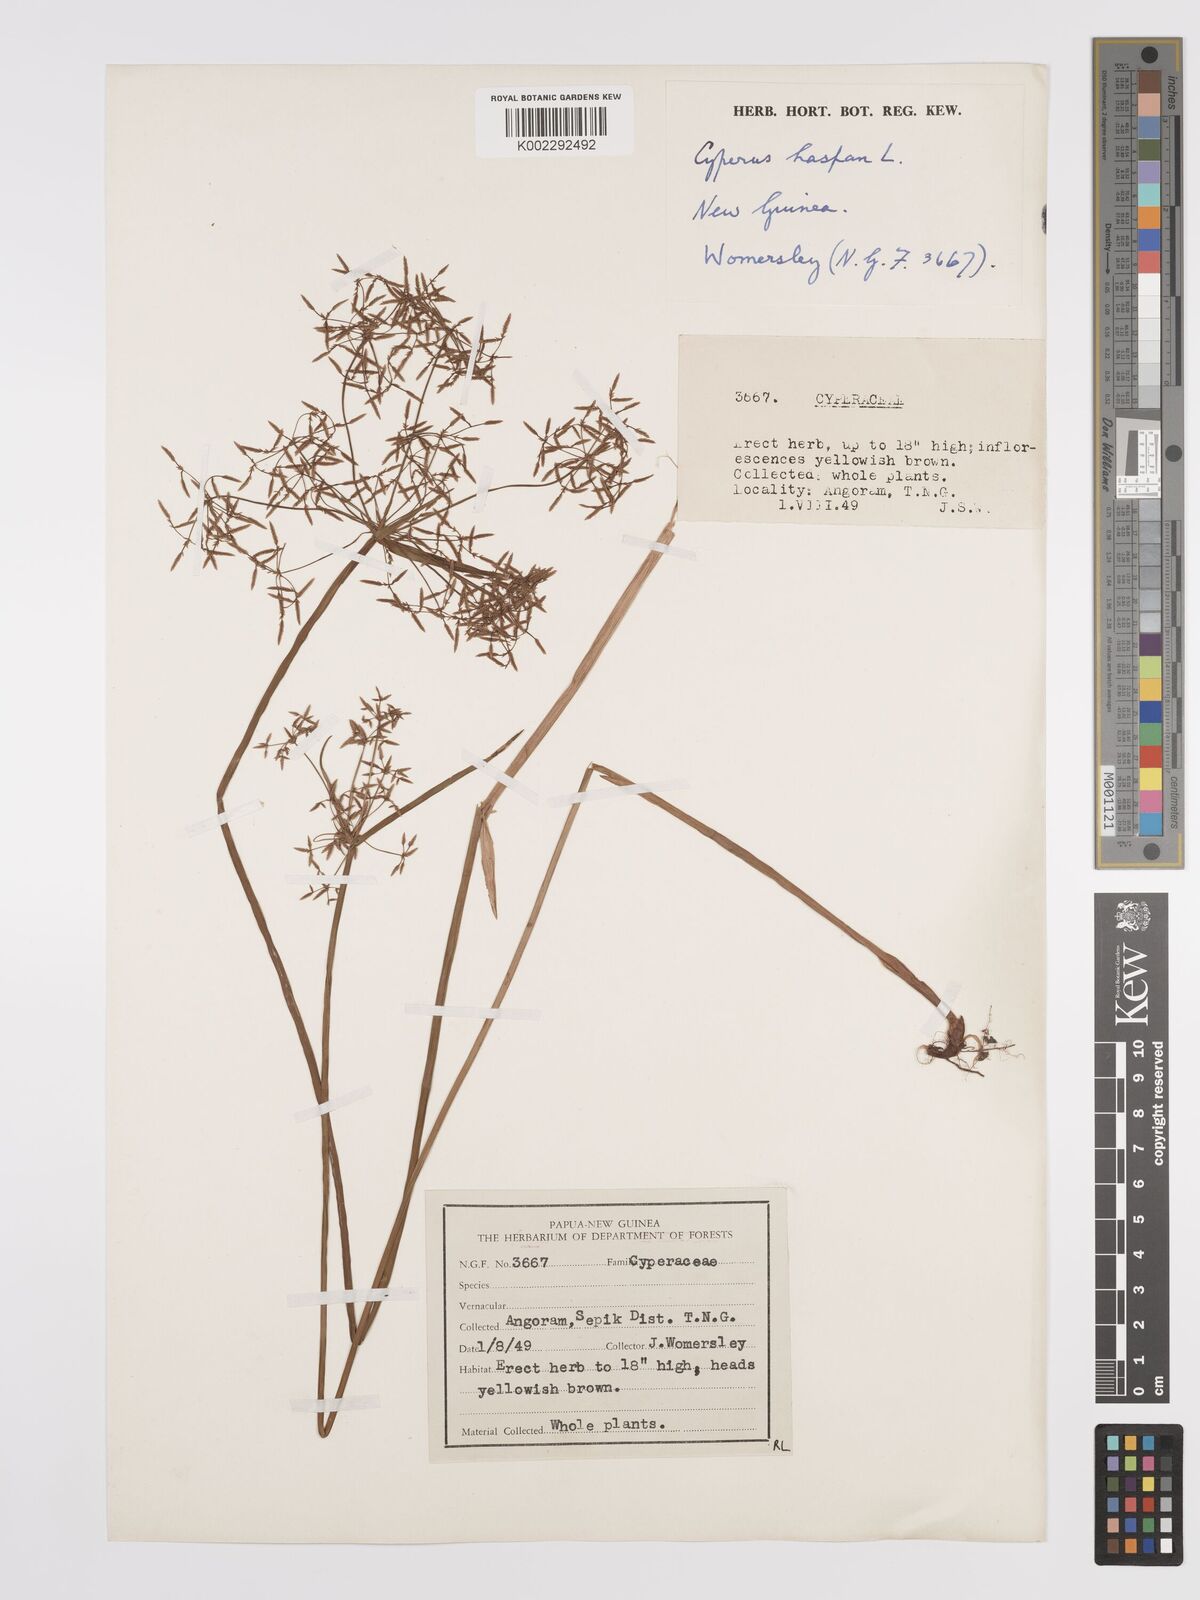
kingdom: Plantae
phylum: Tracheophyta
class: Liliopsida
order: Poales
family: Cyperaceae
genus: Cyperus
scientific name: Cyperus haspan
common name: Haspan flatsedge
